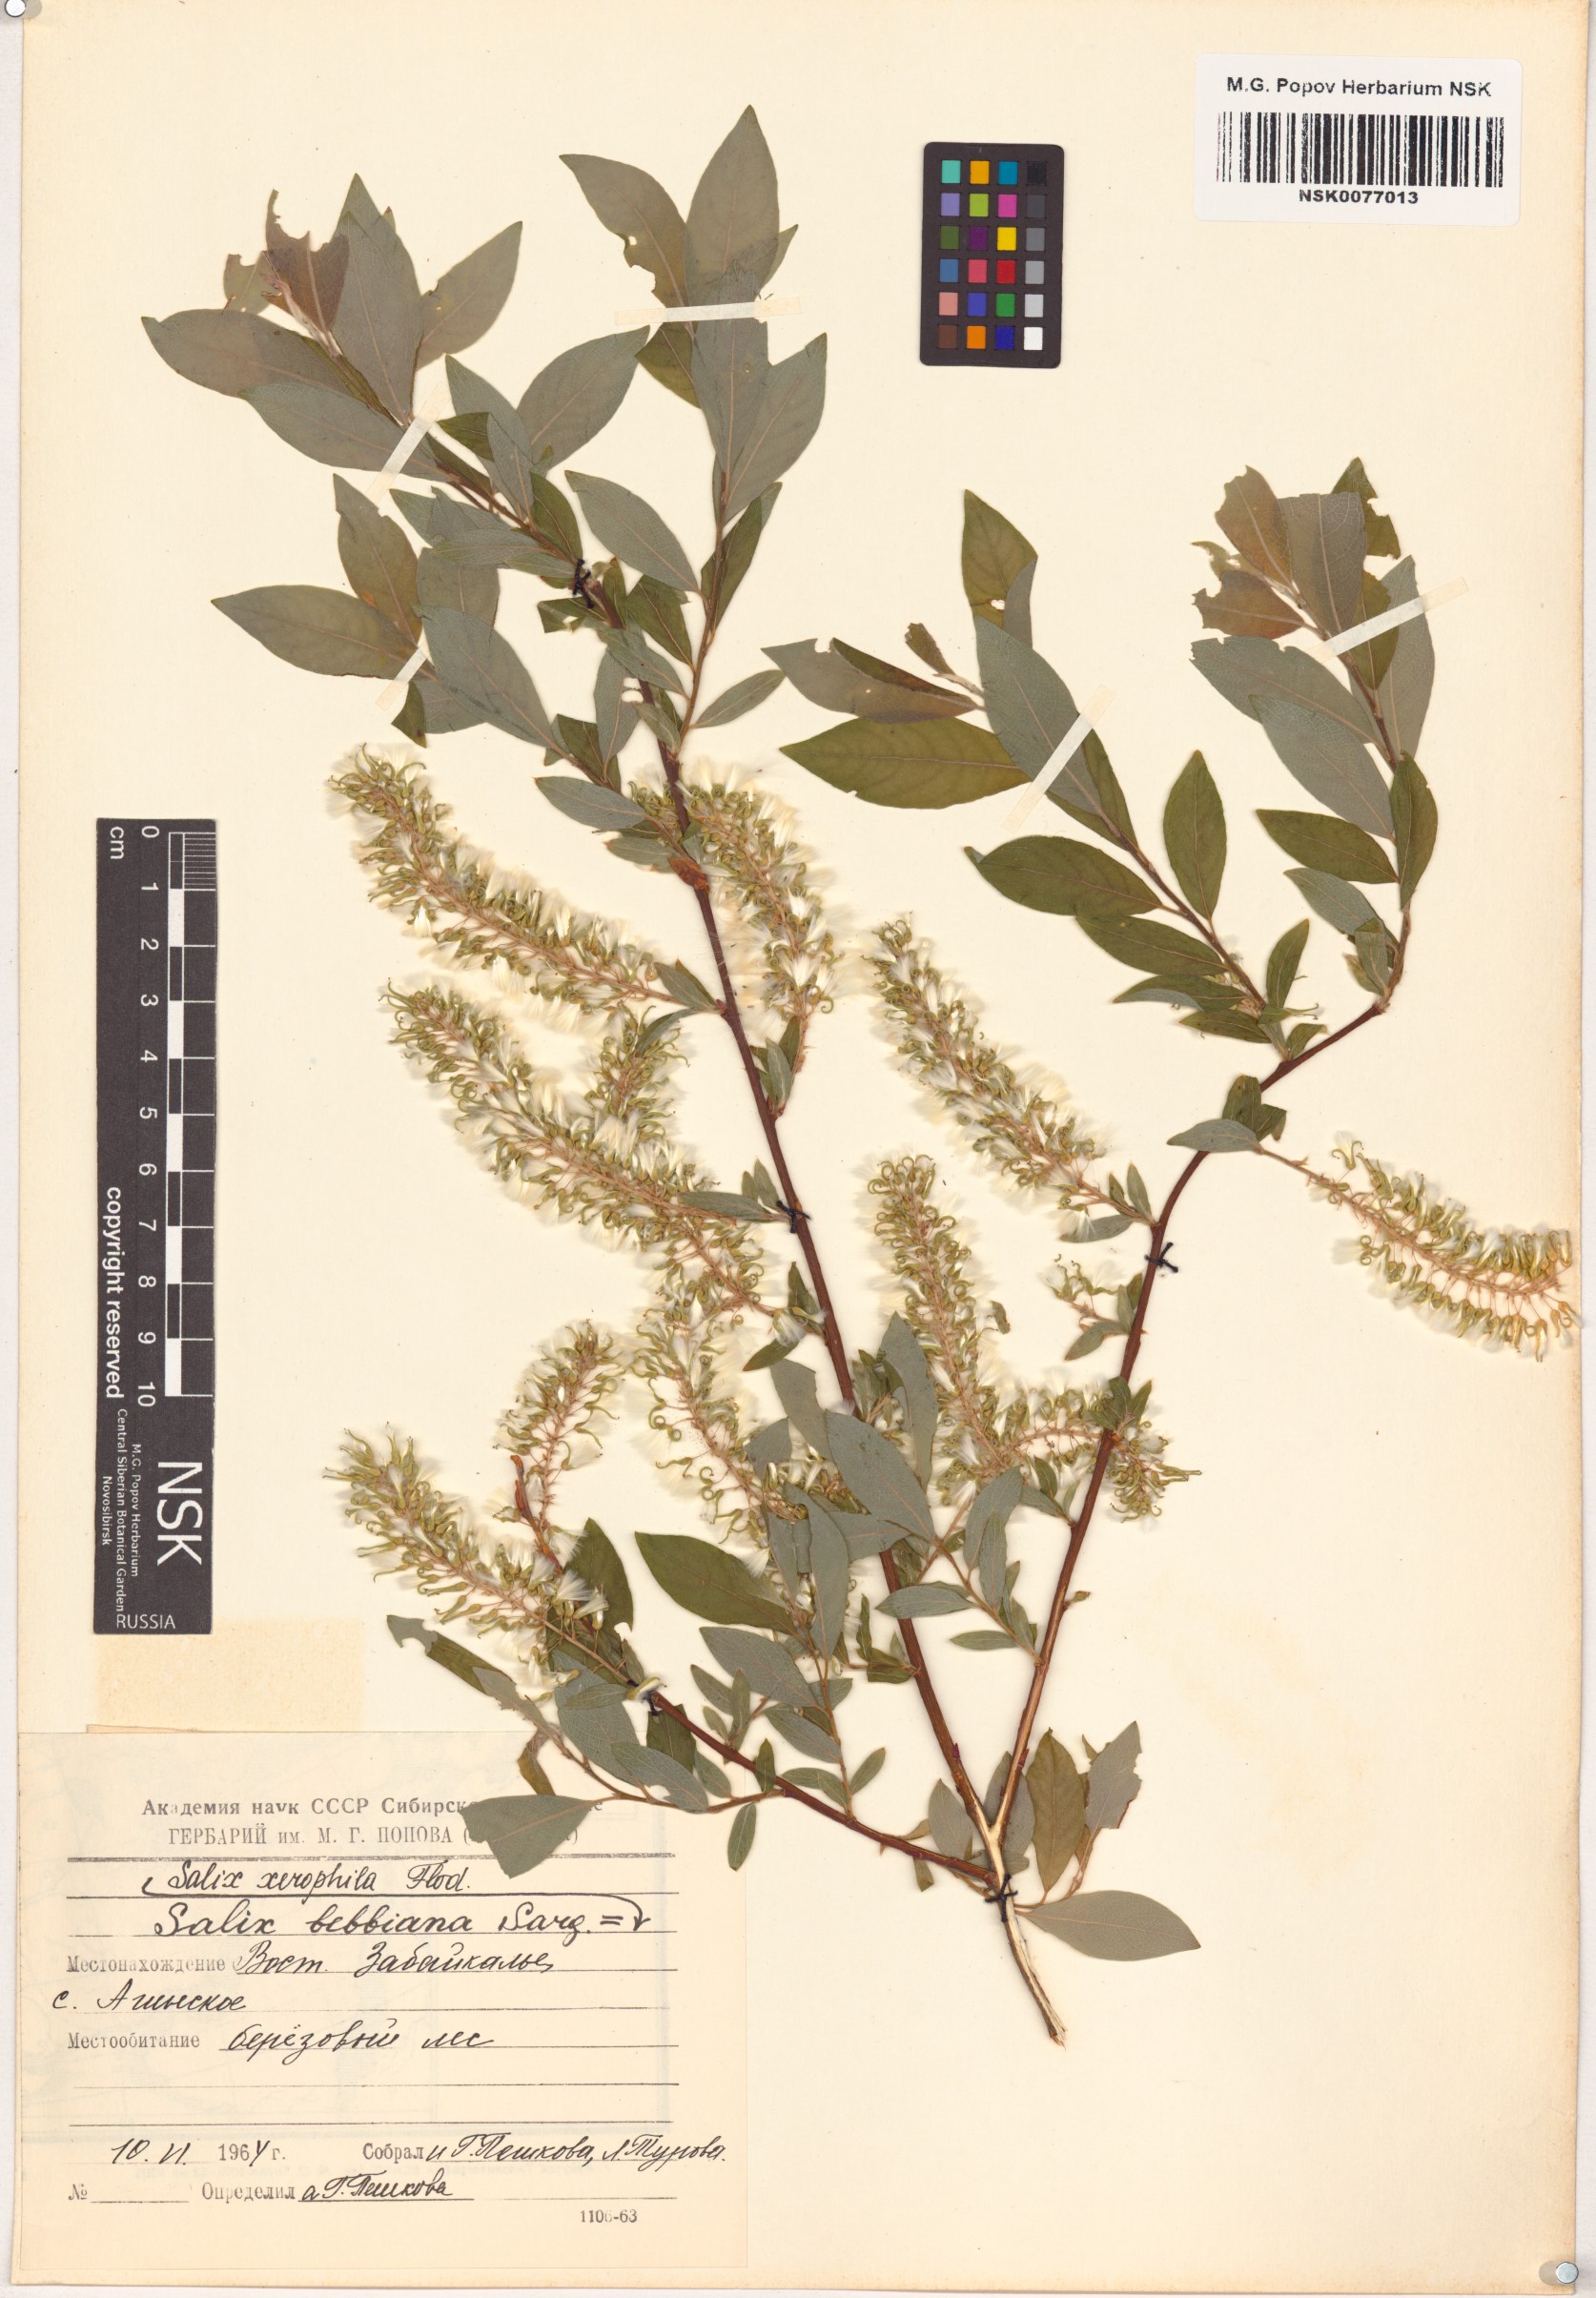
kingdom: Plantae
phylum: Tracheophyta
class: Magnoliopsida
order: Malpighiales
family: Salicaceae
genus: Salix
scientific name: Salix bebbiana
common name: Bebb's willow
